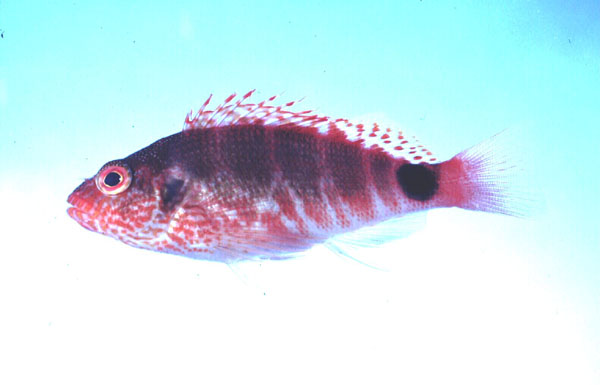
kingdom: Animalia
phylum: Chordata
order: Perciformes
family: Cirrhitidae
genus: Cirrhitops
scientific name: Cirrhitops fasciatus
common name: Redbarred hawkfish
